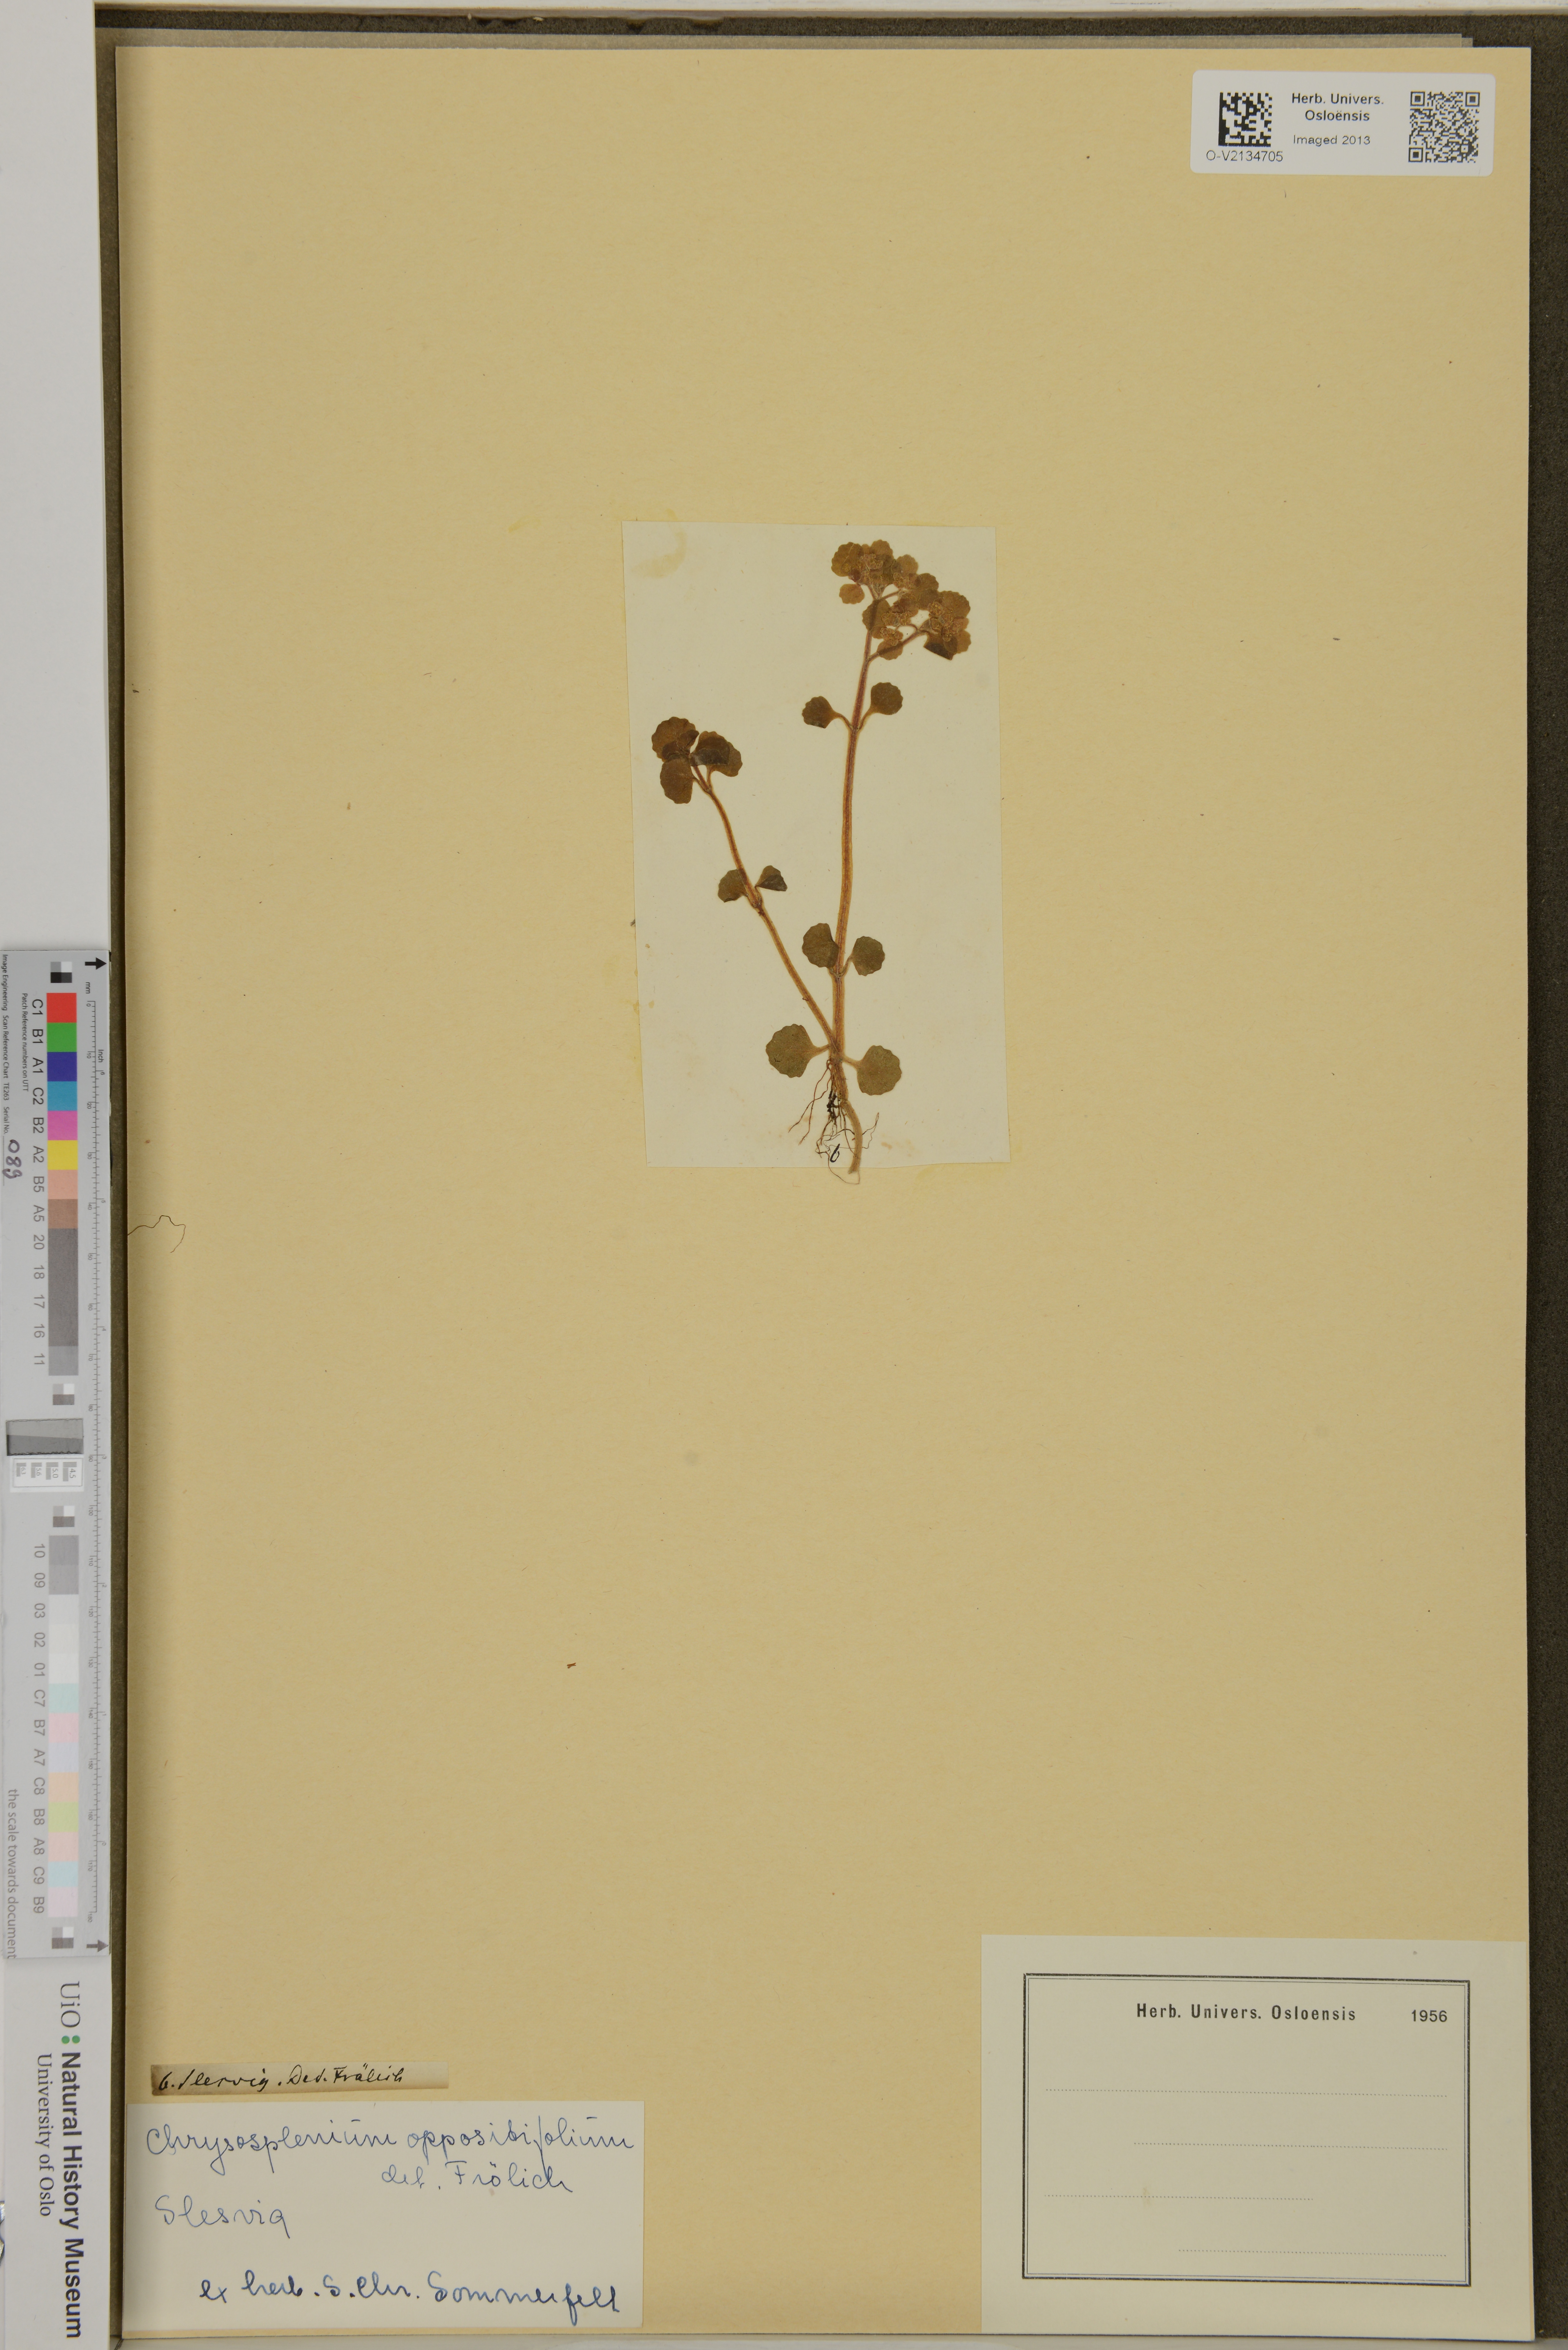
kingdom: Plantae
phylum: Tracheophyta
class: Magnoliopsida
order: Saxifragales
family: Saxifragaceae
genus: Chrysosplenium
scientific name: Chrysosplenium oppositifolium
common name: Opposite-leaved golden-saxifrage
